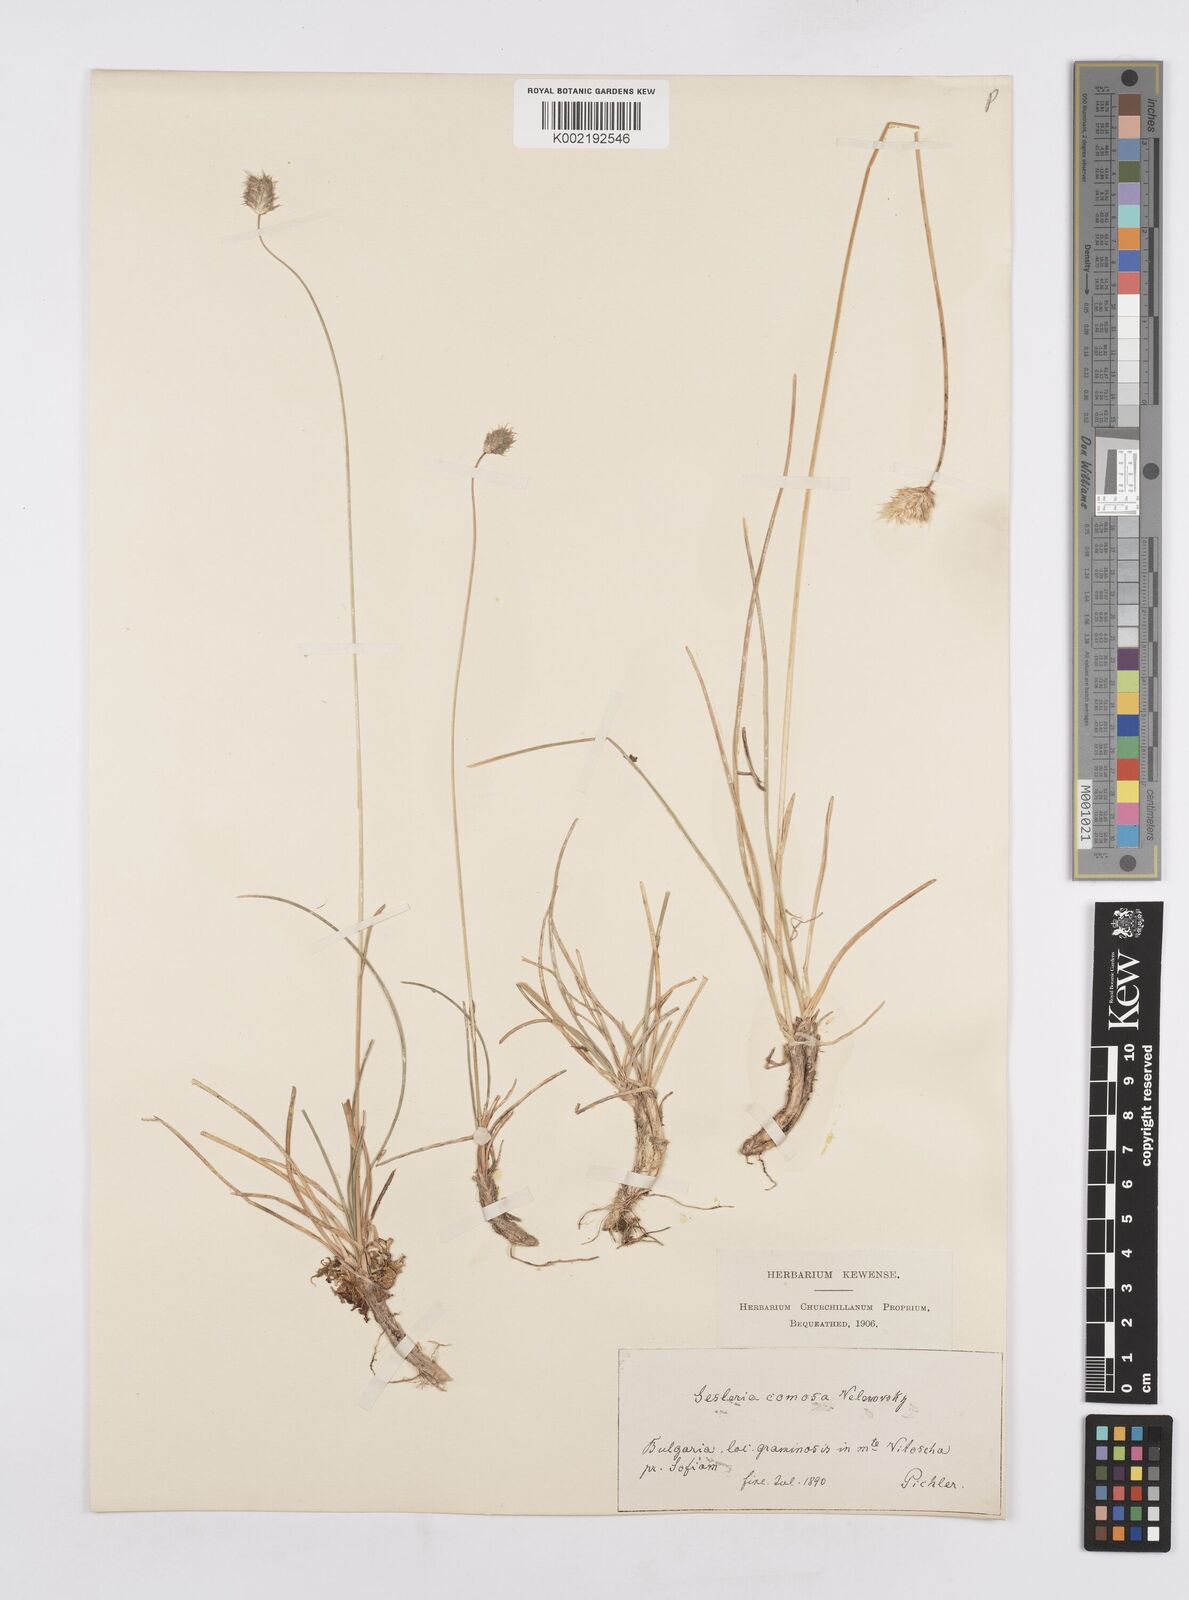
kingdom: Plantae
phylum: Tracheophyta
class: Liliopsida
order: Poales
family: Poaceae
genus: Sesleria
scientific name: Sesleria comosa
